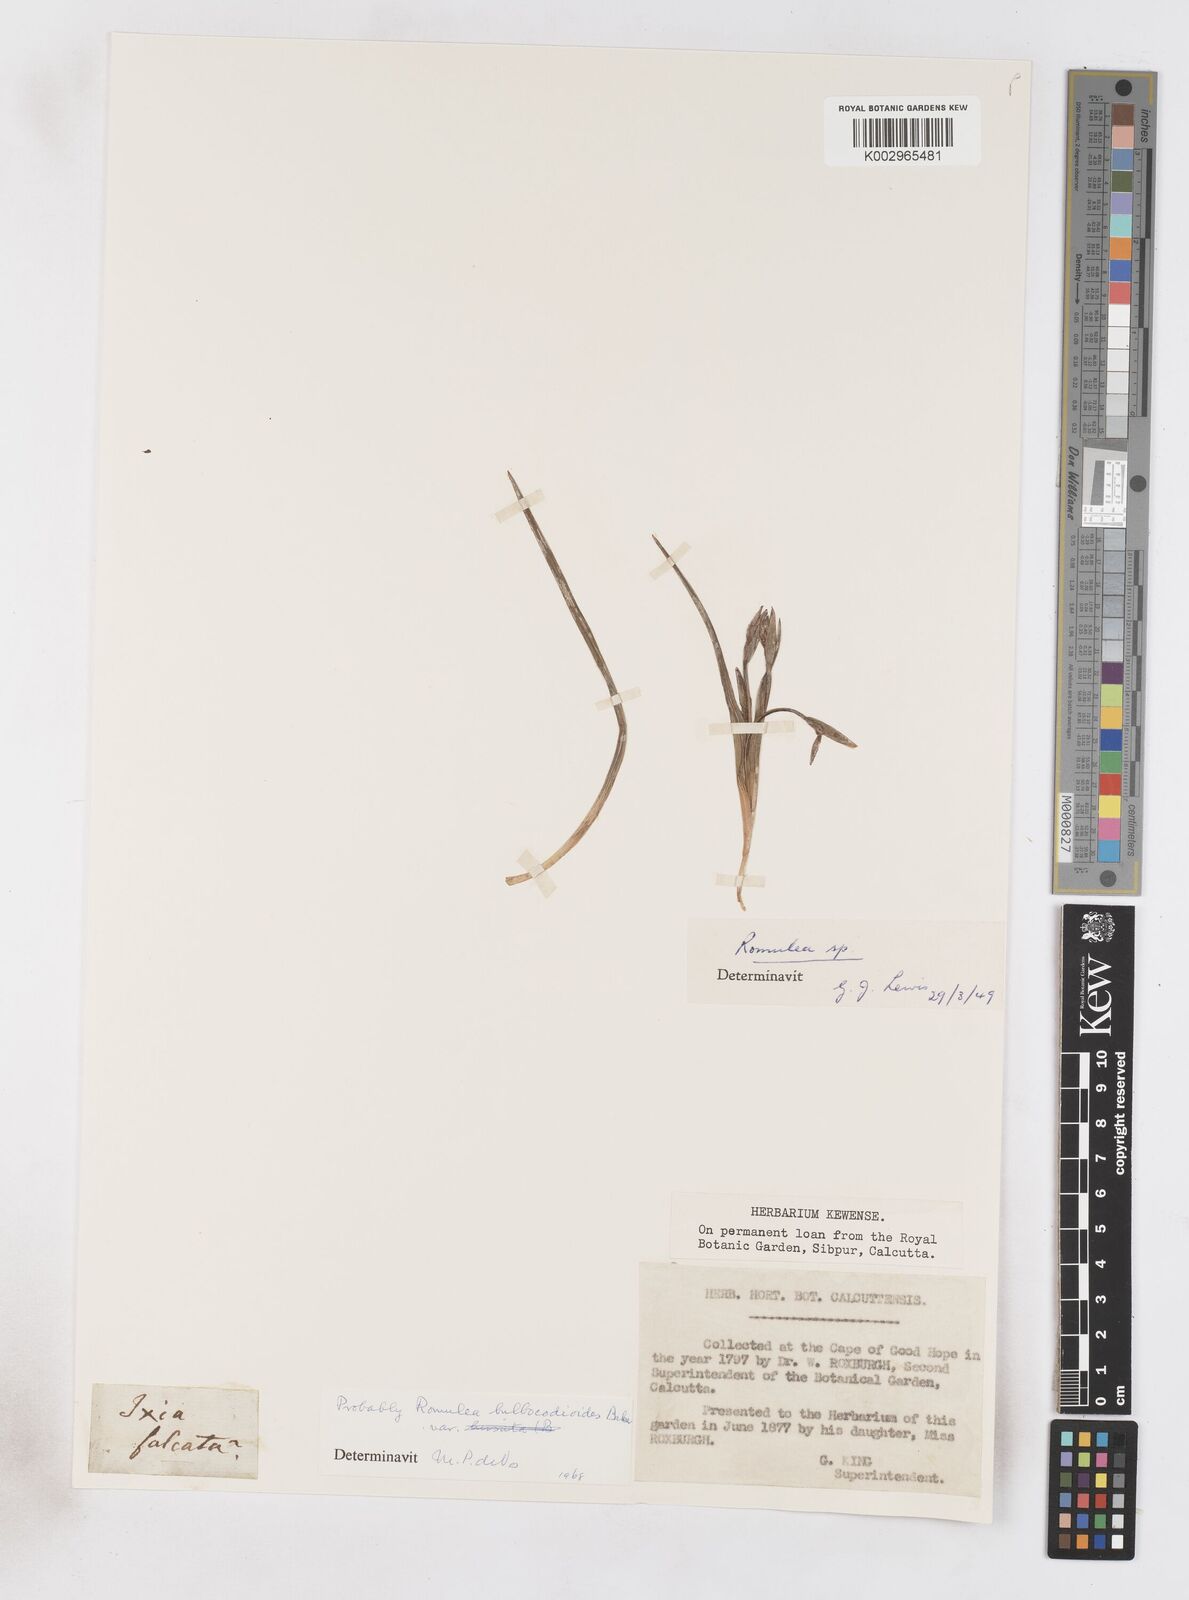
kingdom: Plantae
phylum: Tracheophyta
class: Liliopsida
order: Asparagales
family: Iridaceae
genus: Romulea
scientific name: Romulea flava
